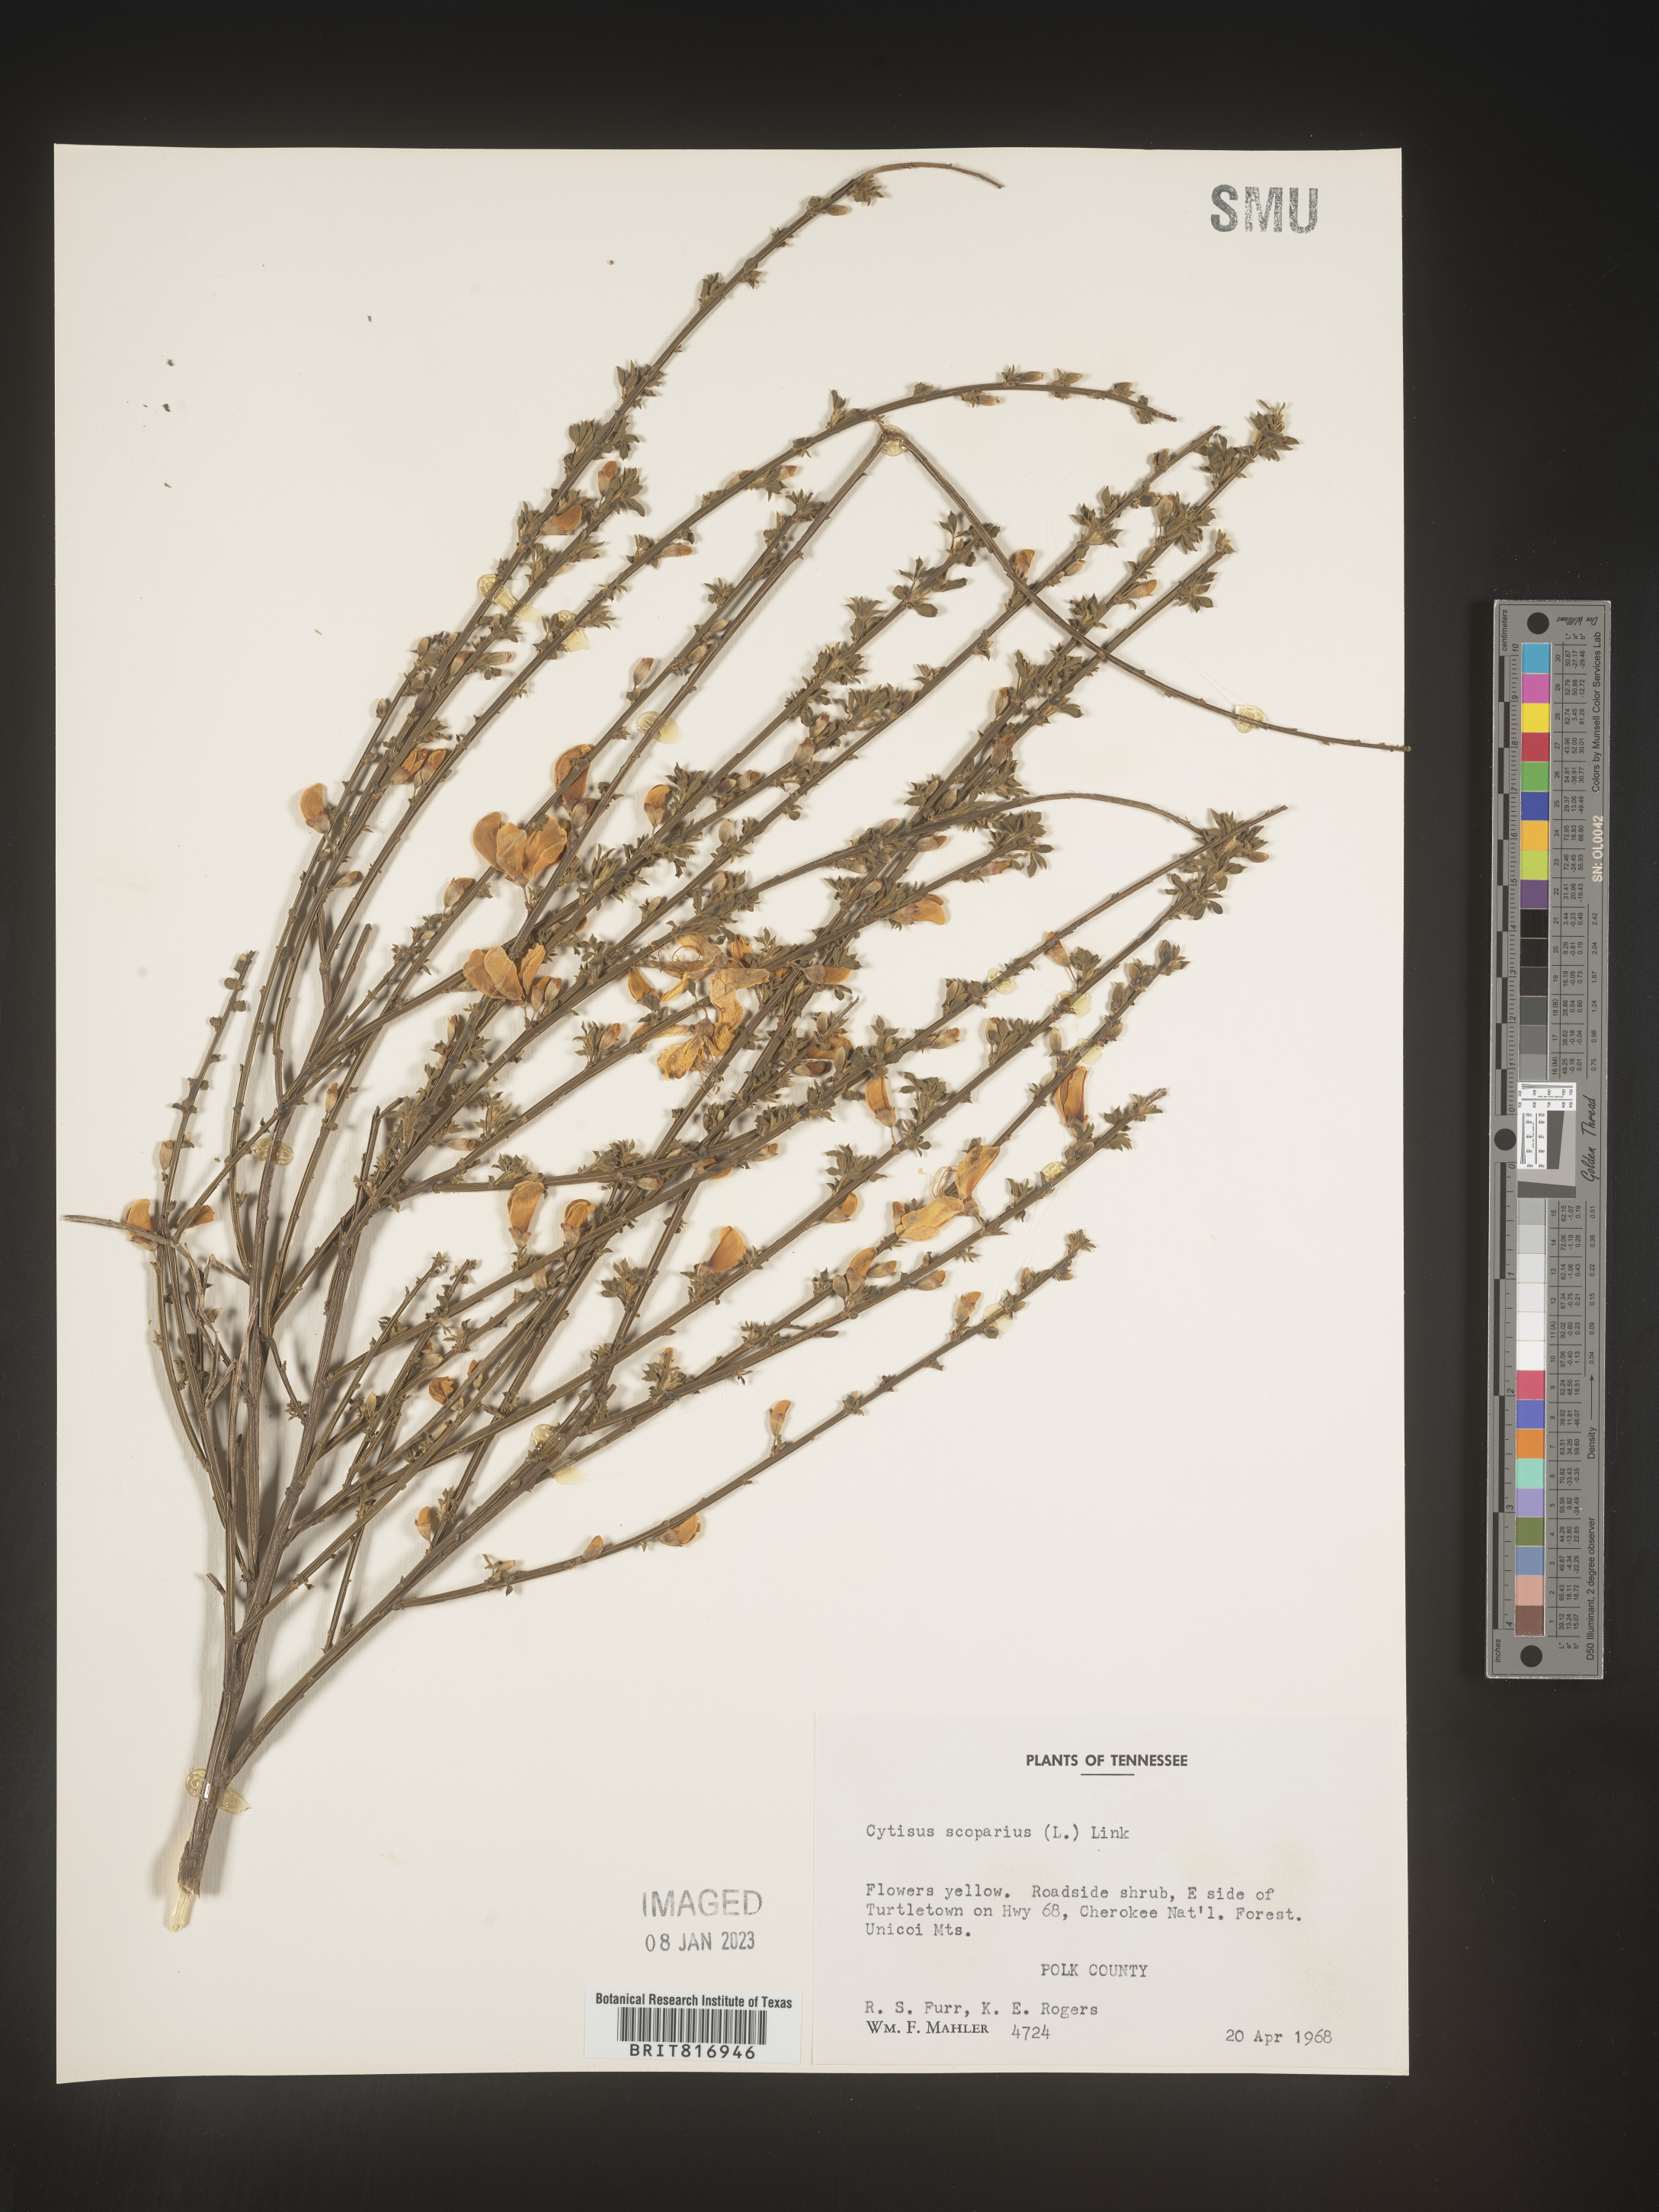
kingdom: Plantae
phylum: Tracheophyta
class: Magnoliopsida
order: Fabales
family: Fabaceae
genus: Cytisus
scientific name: Cytisus
